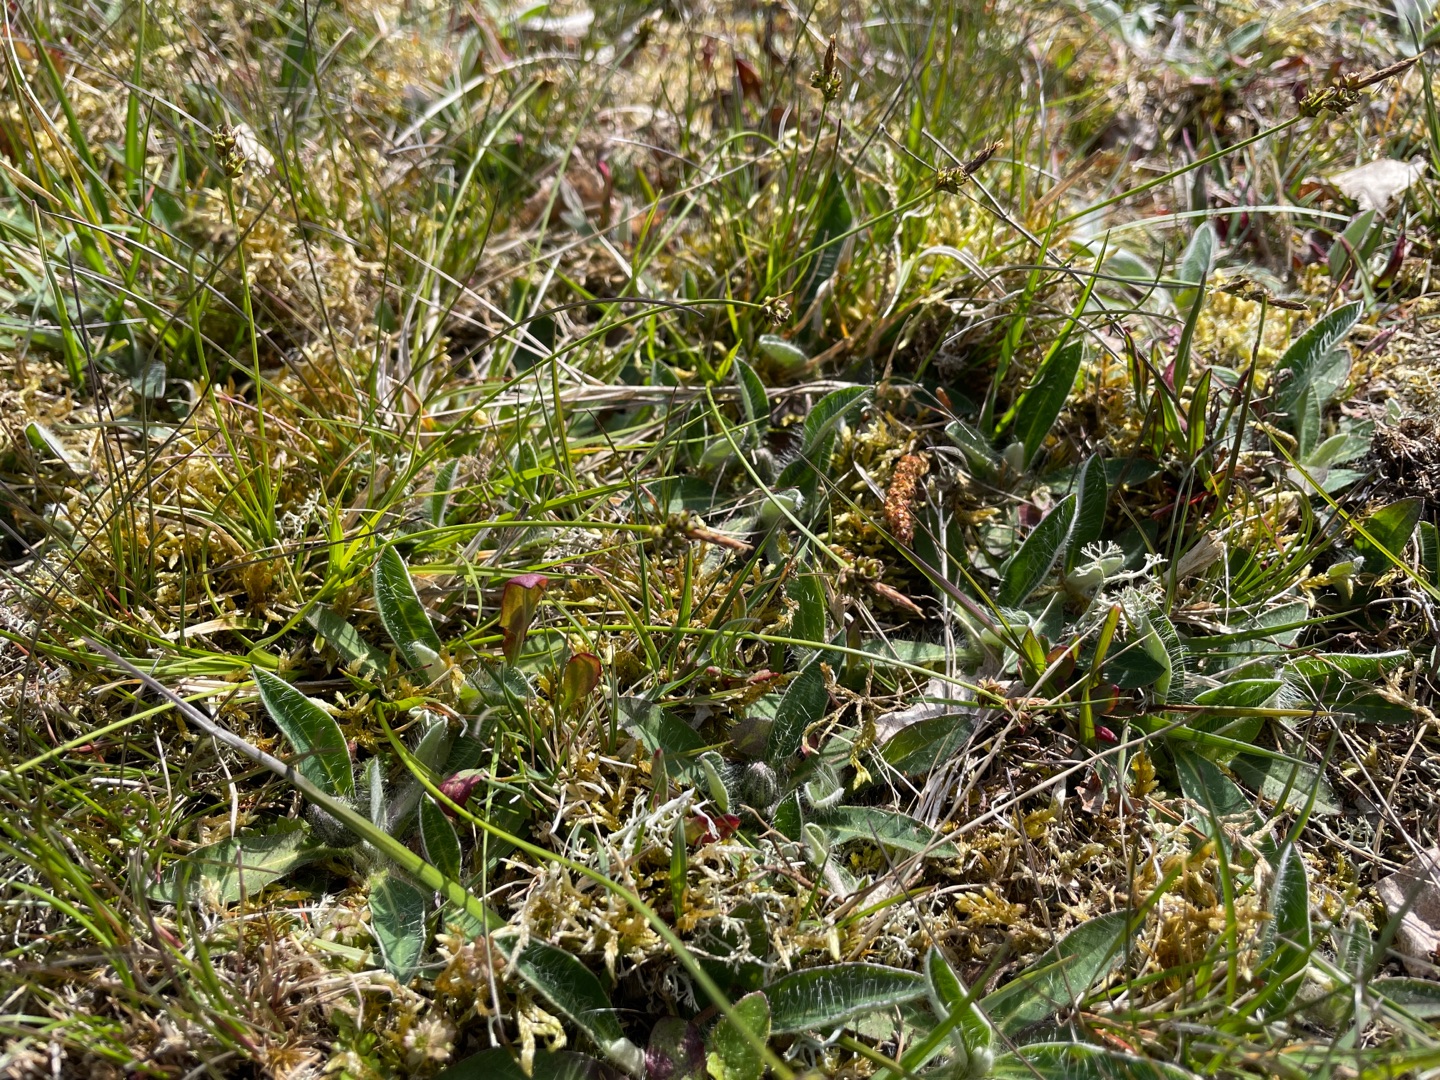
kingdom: Plantae
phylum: Tracheophyta
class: Liliopsida
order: Poales
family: Cyperaceae
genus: Carex
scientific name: Carex pilulifera
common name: Pille-star
